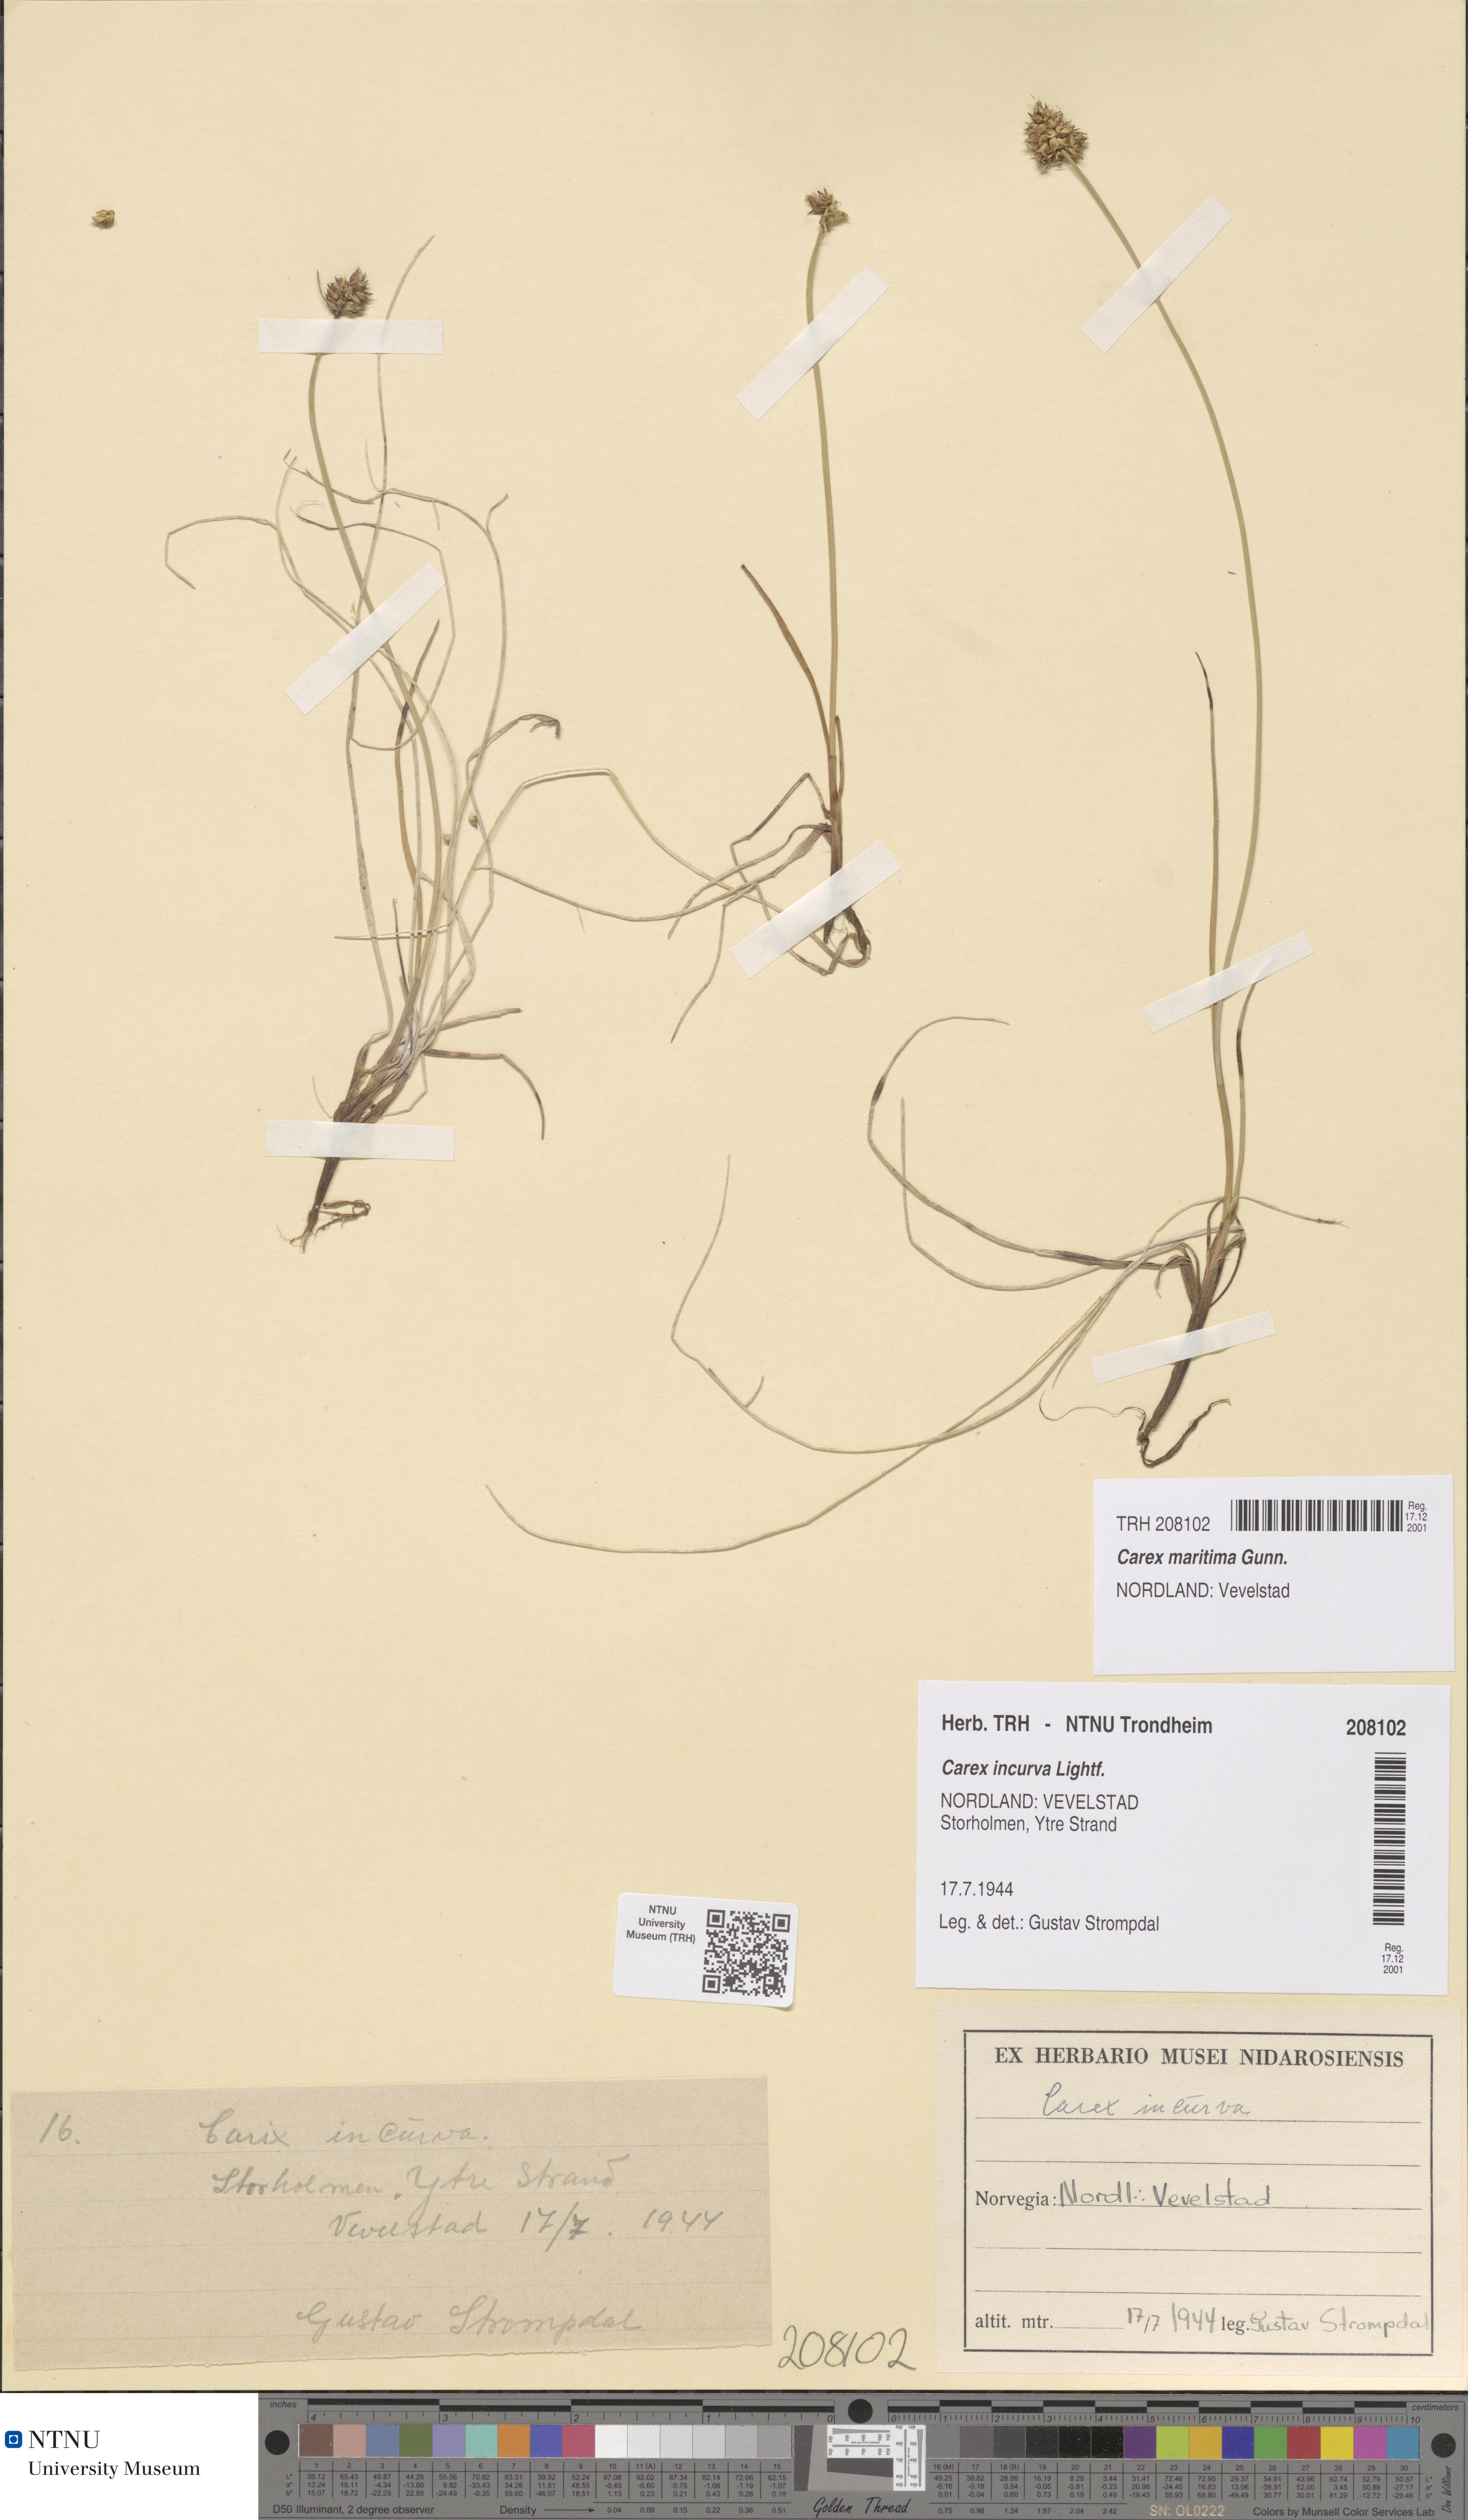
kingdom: Plantae
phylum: Tracheophyta
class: Liliopsida
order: Poales
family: Cyperaceae
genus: Carex
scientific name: Carex maritima
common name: Curved sedge
